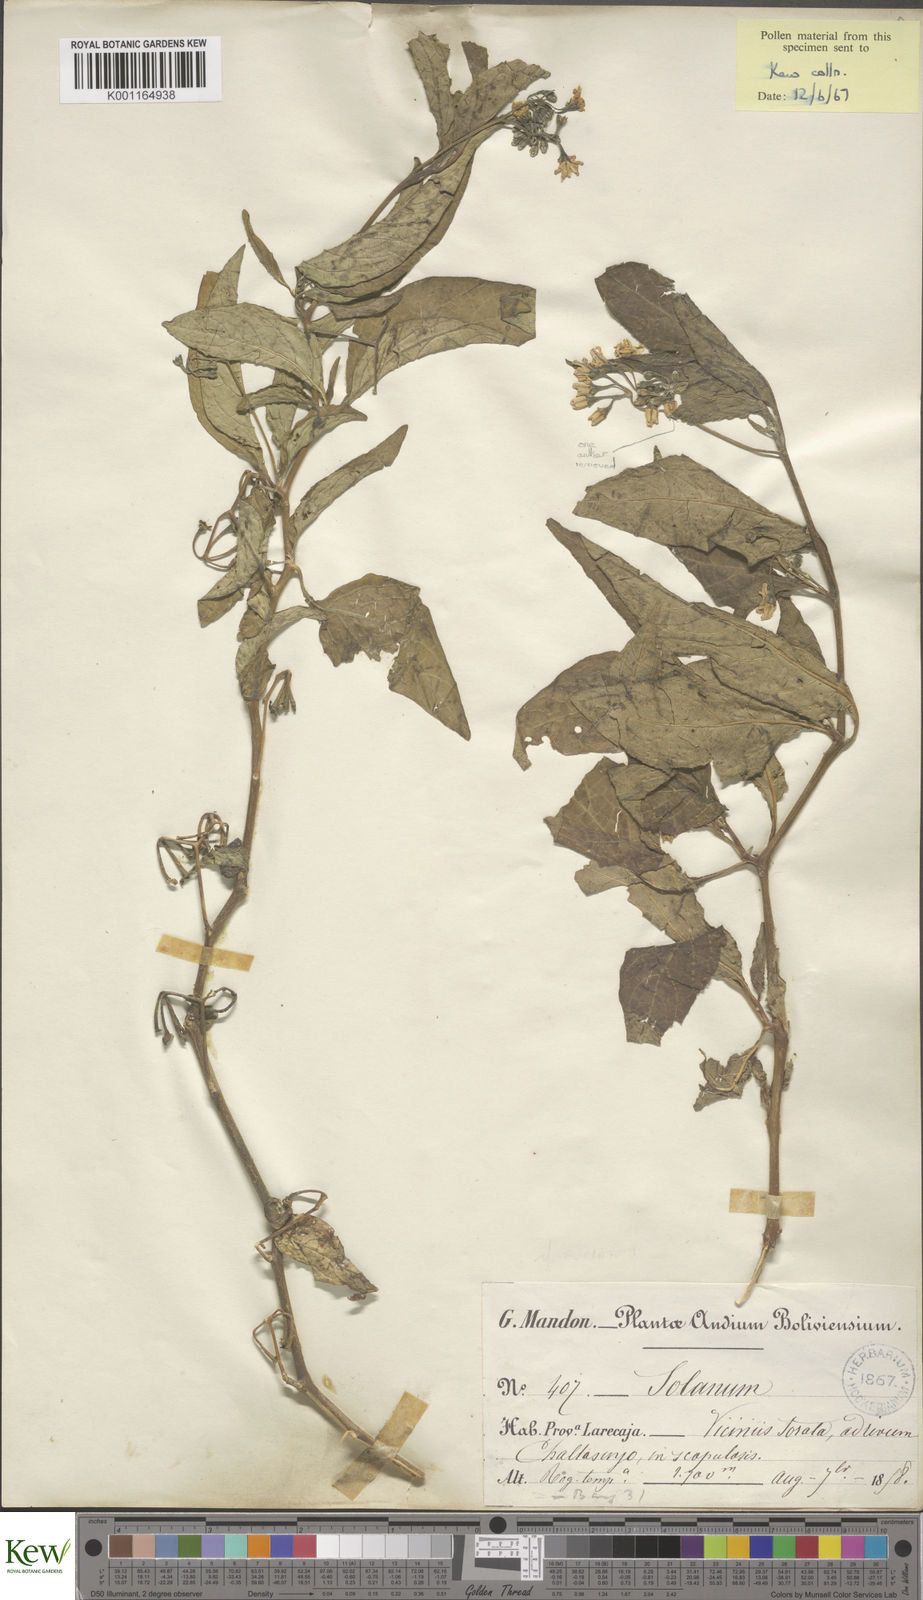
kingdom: Plantae
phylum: Tracheophyta
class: Magnoliopsida
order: Solanales
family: Solanaceae
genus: Solanum
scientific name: Solanum nudum
